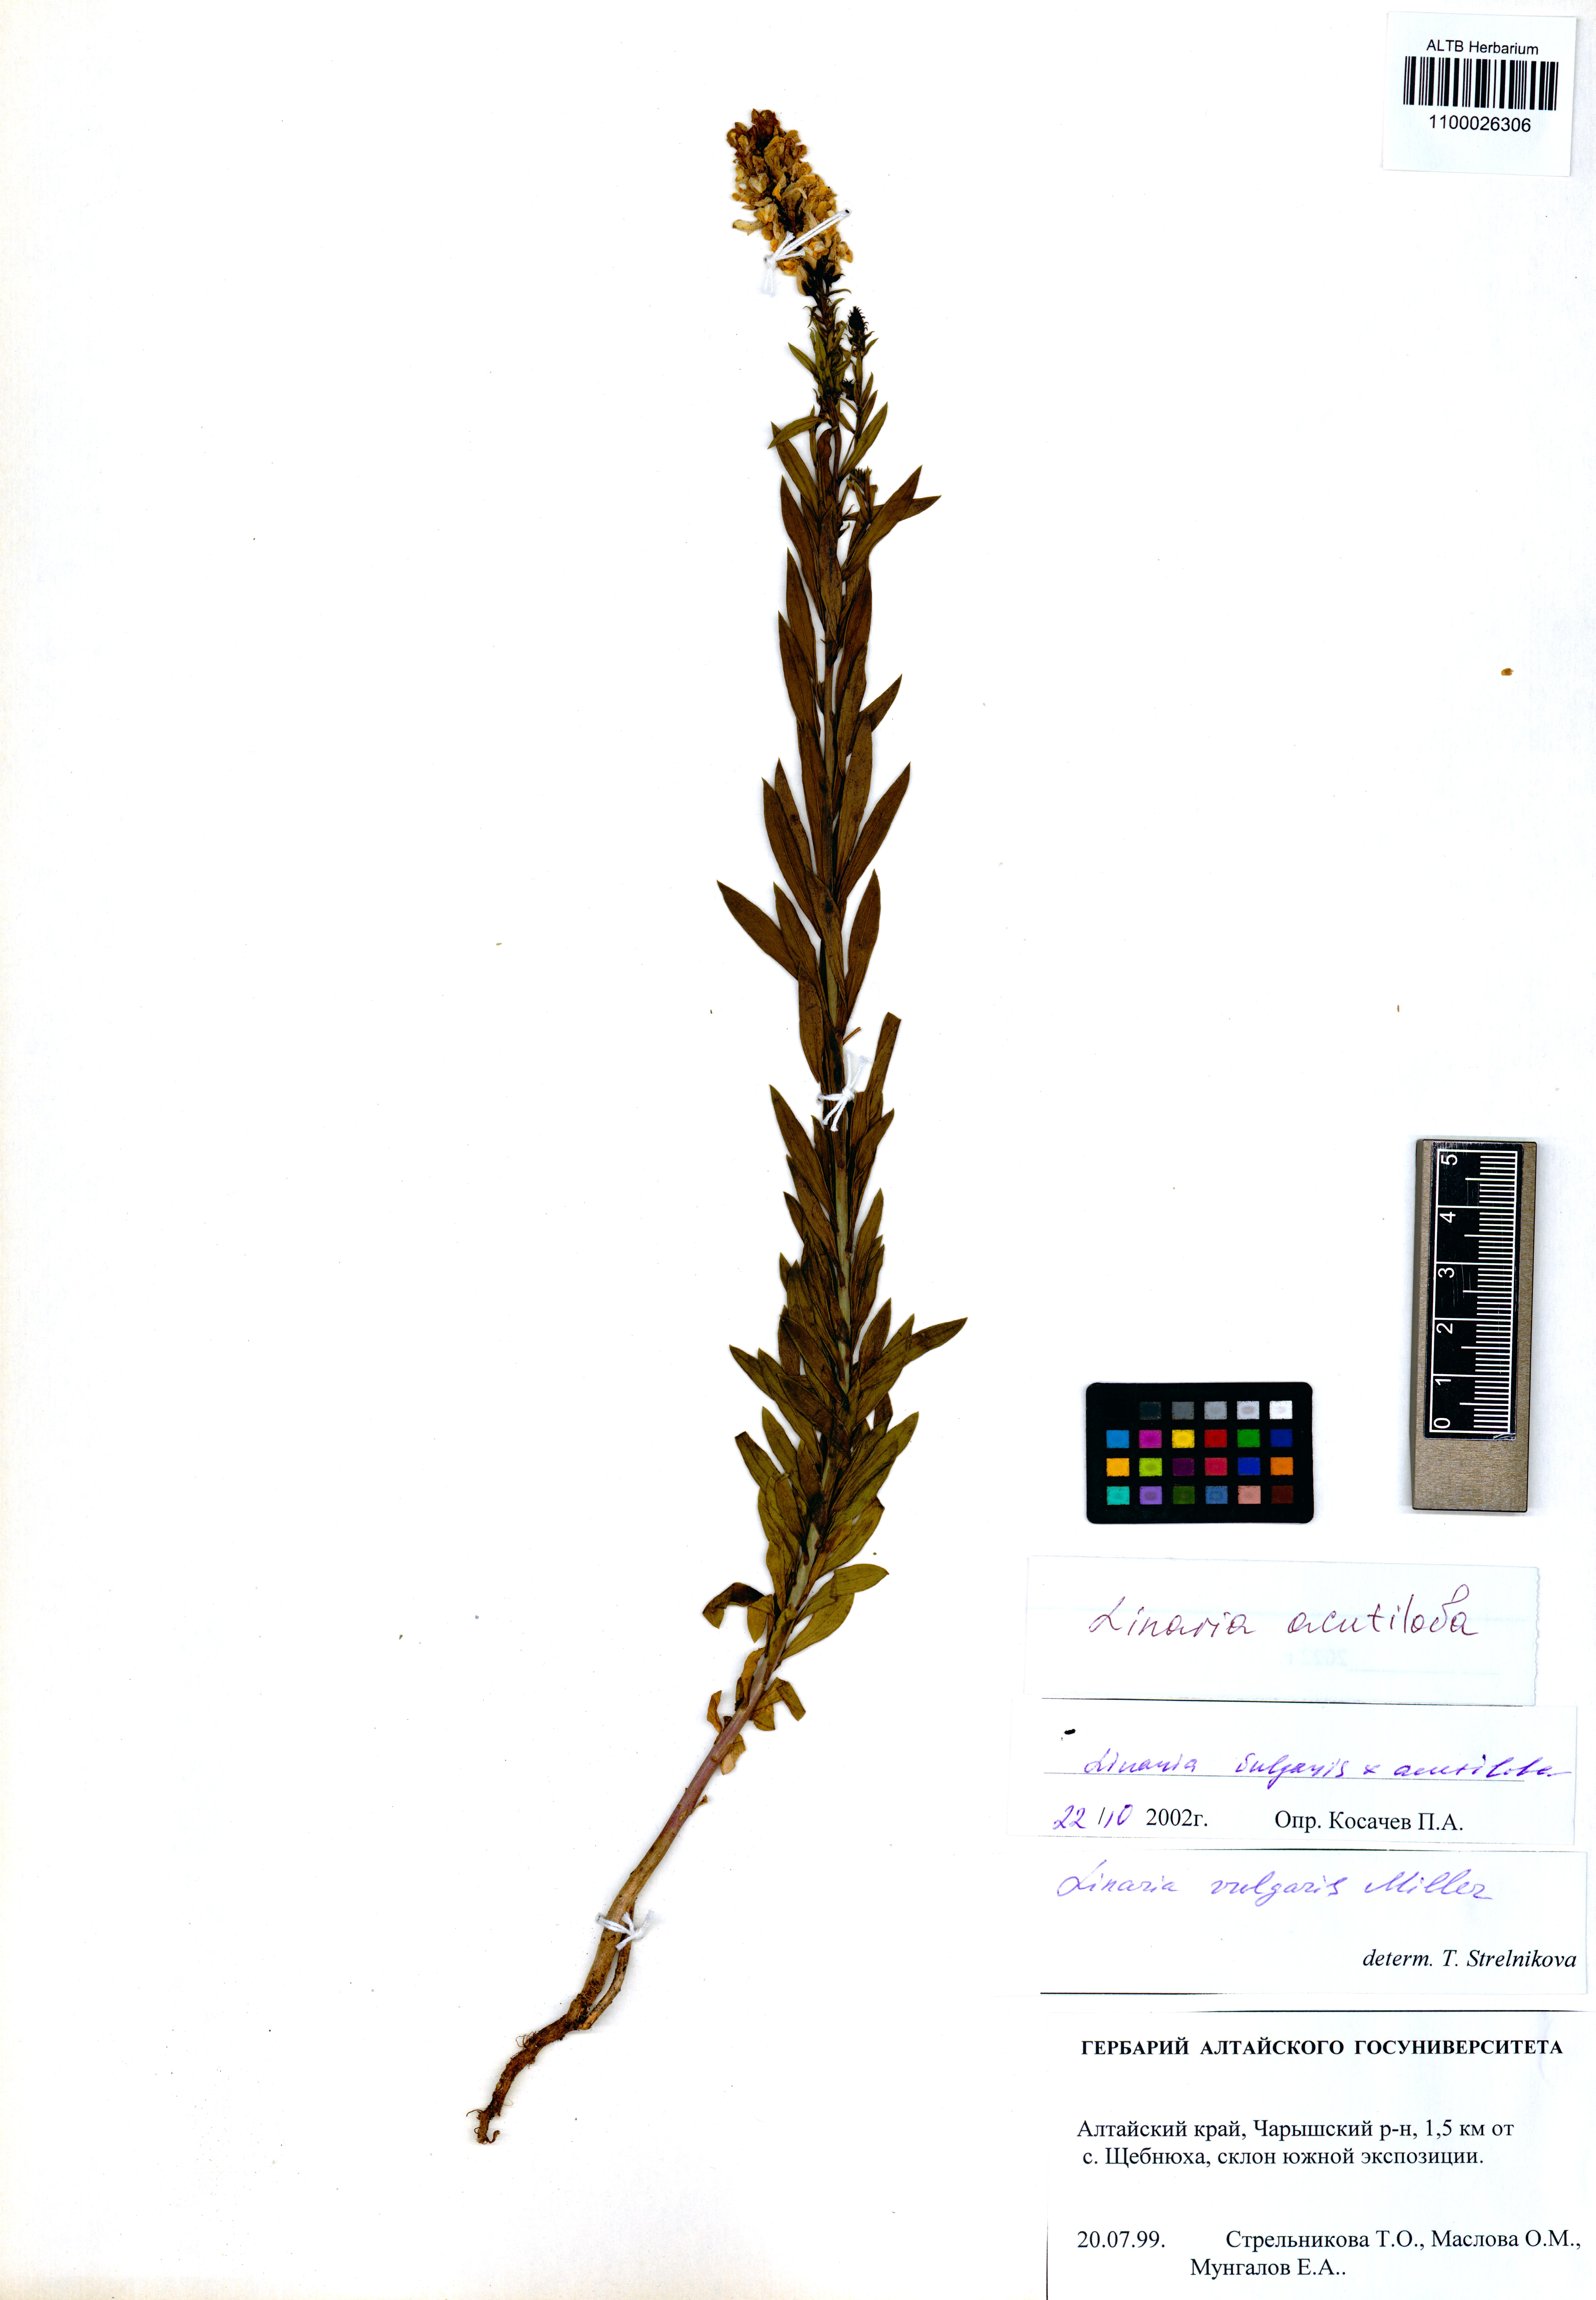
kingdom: Plantae
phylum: Tracheophyta
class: Magnoliopsida
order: Lamiales
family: Plantaginaceae
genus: Linaria
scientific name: Linaria acutiloba
